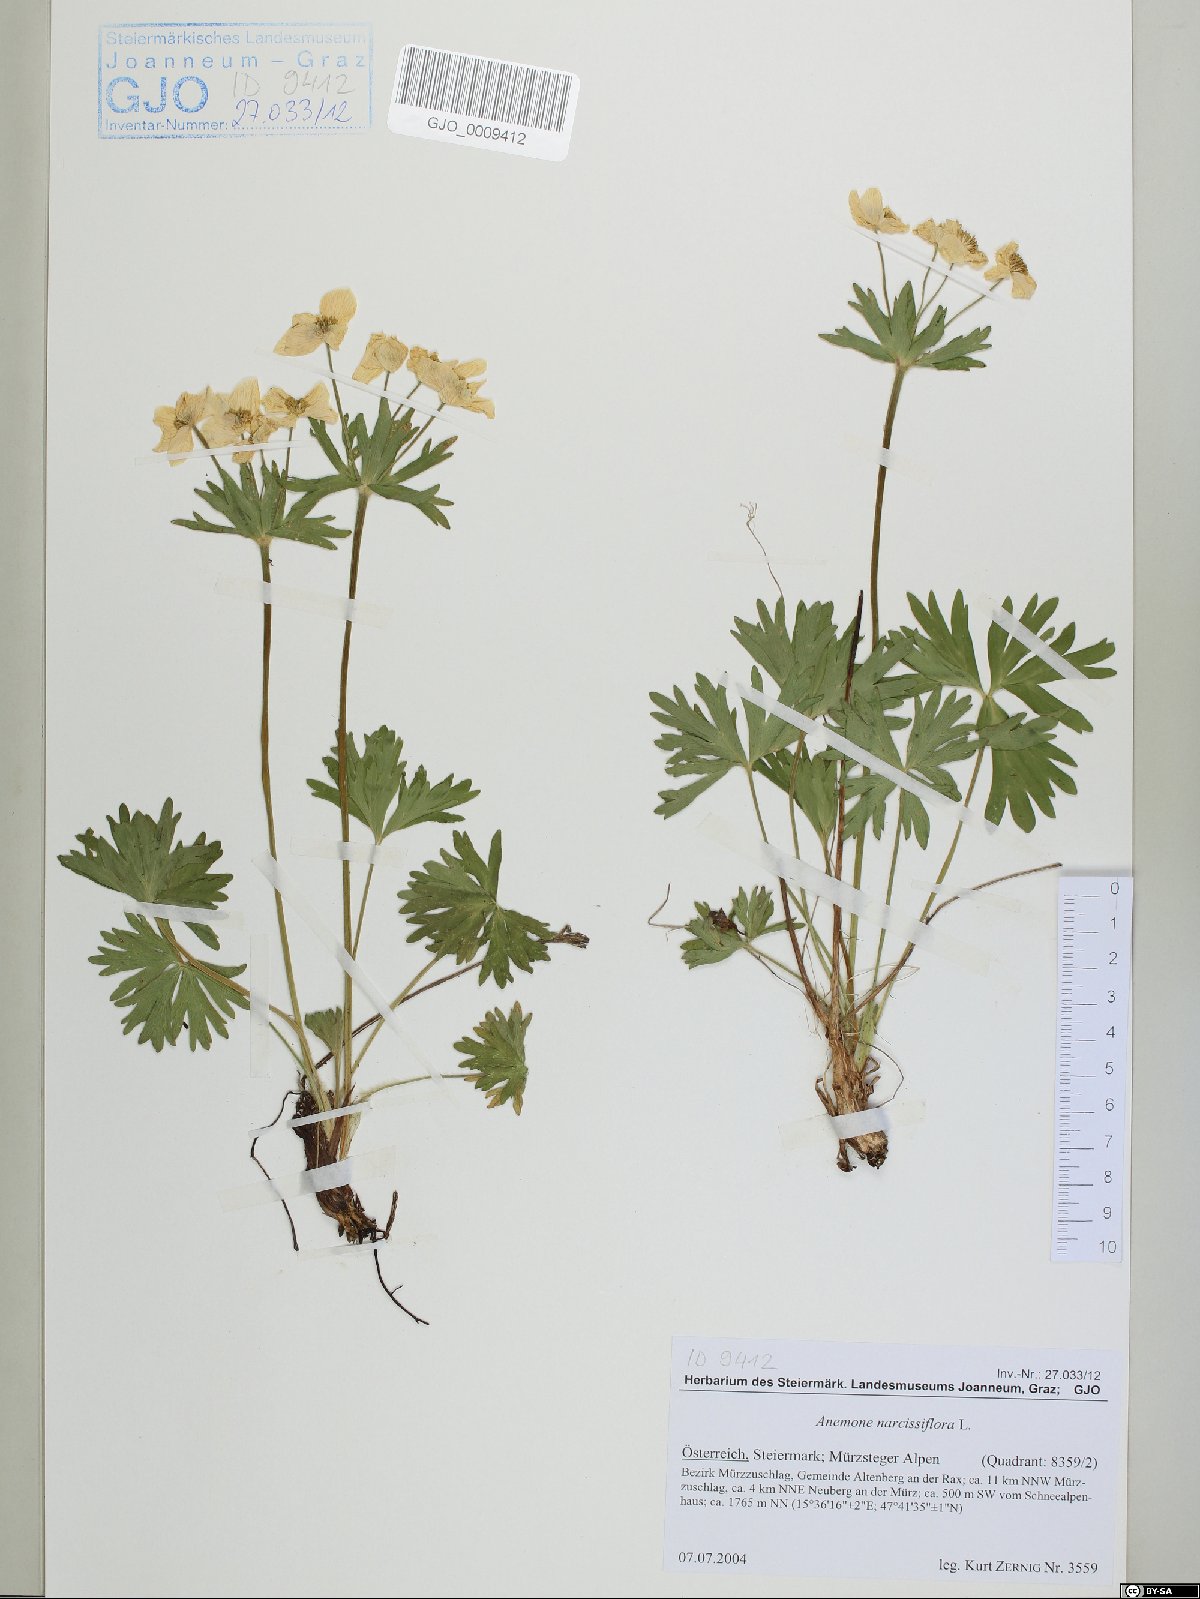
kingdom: Plantae
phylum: Tracheophyta
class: Magnoliopsida
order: Ranunculales
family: Ranunculaceae
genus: Anemonastrum
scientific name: Anemonastrum narcissiflorum
